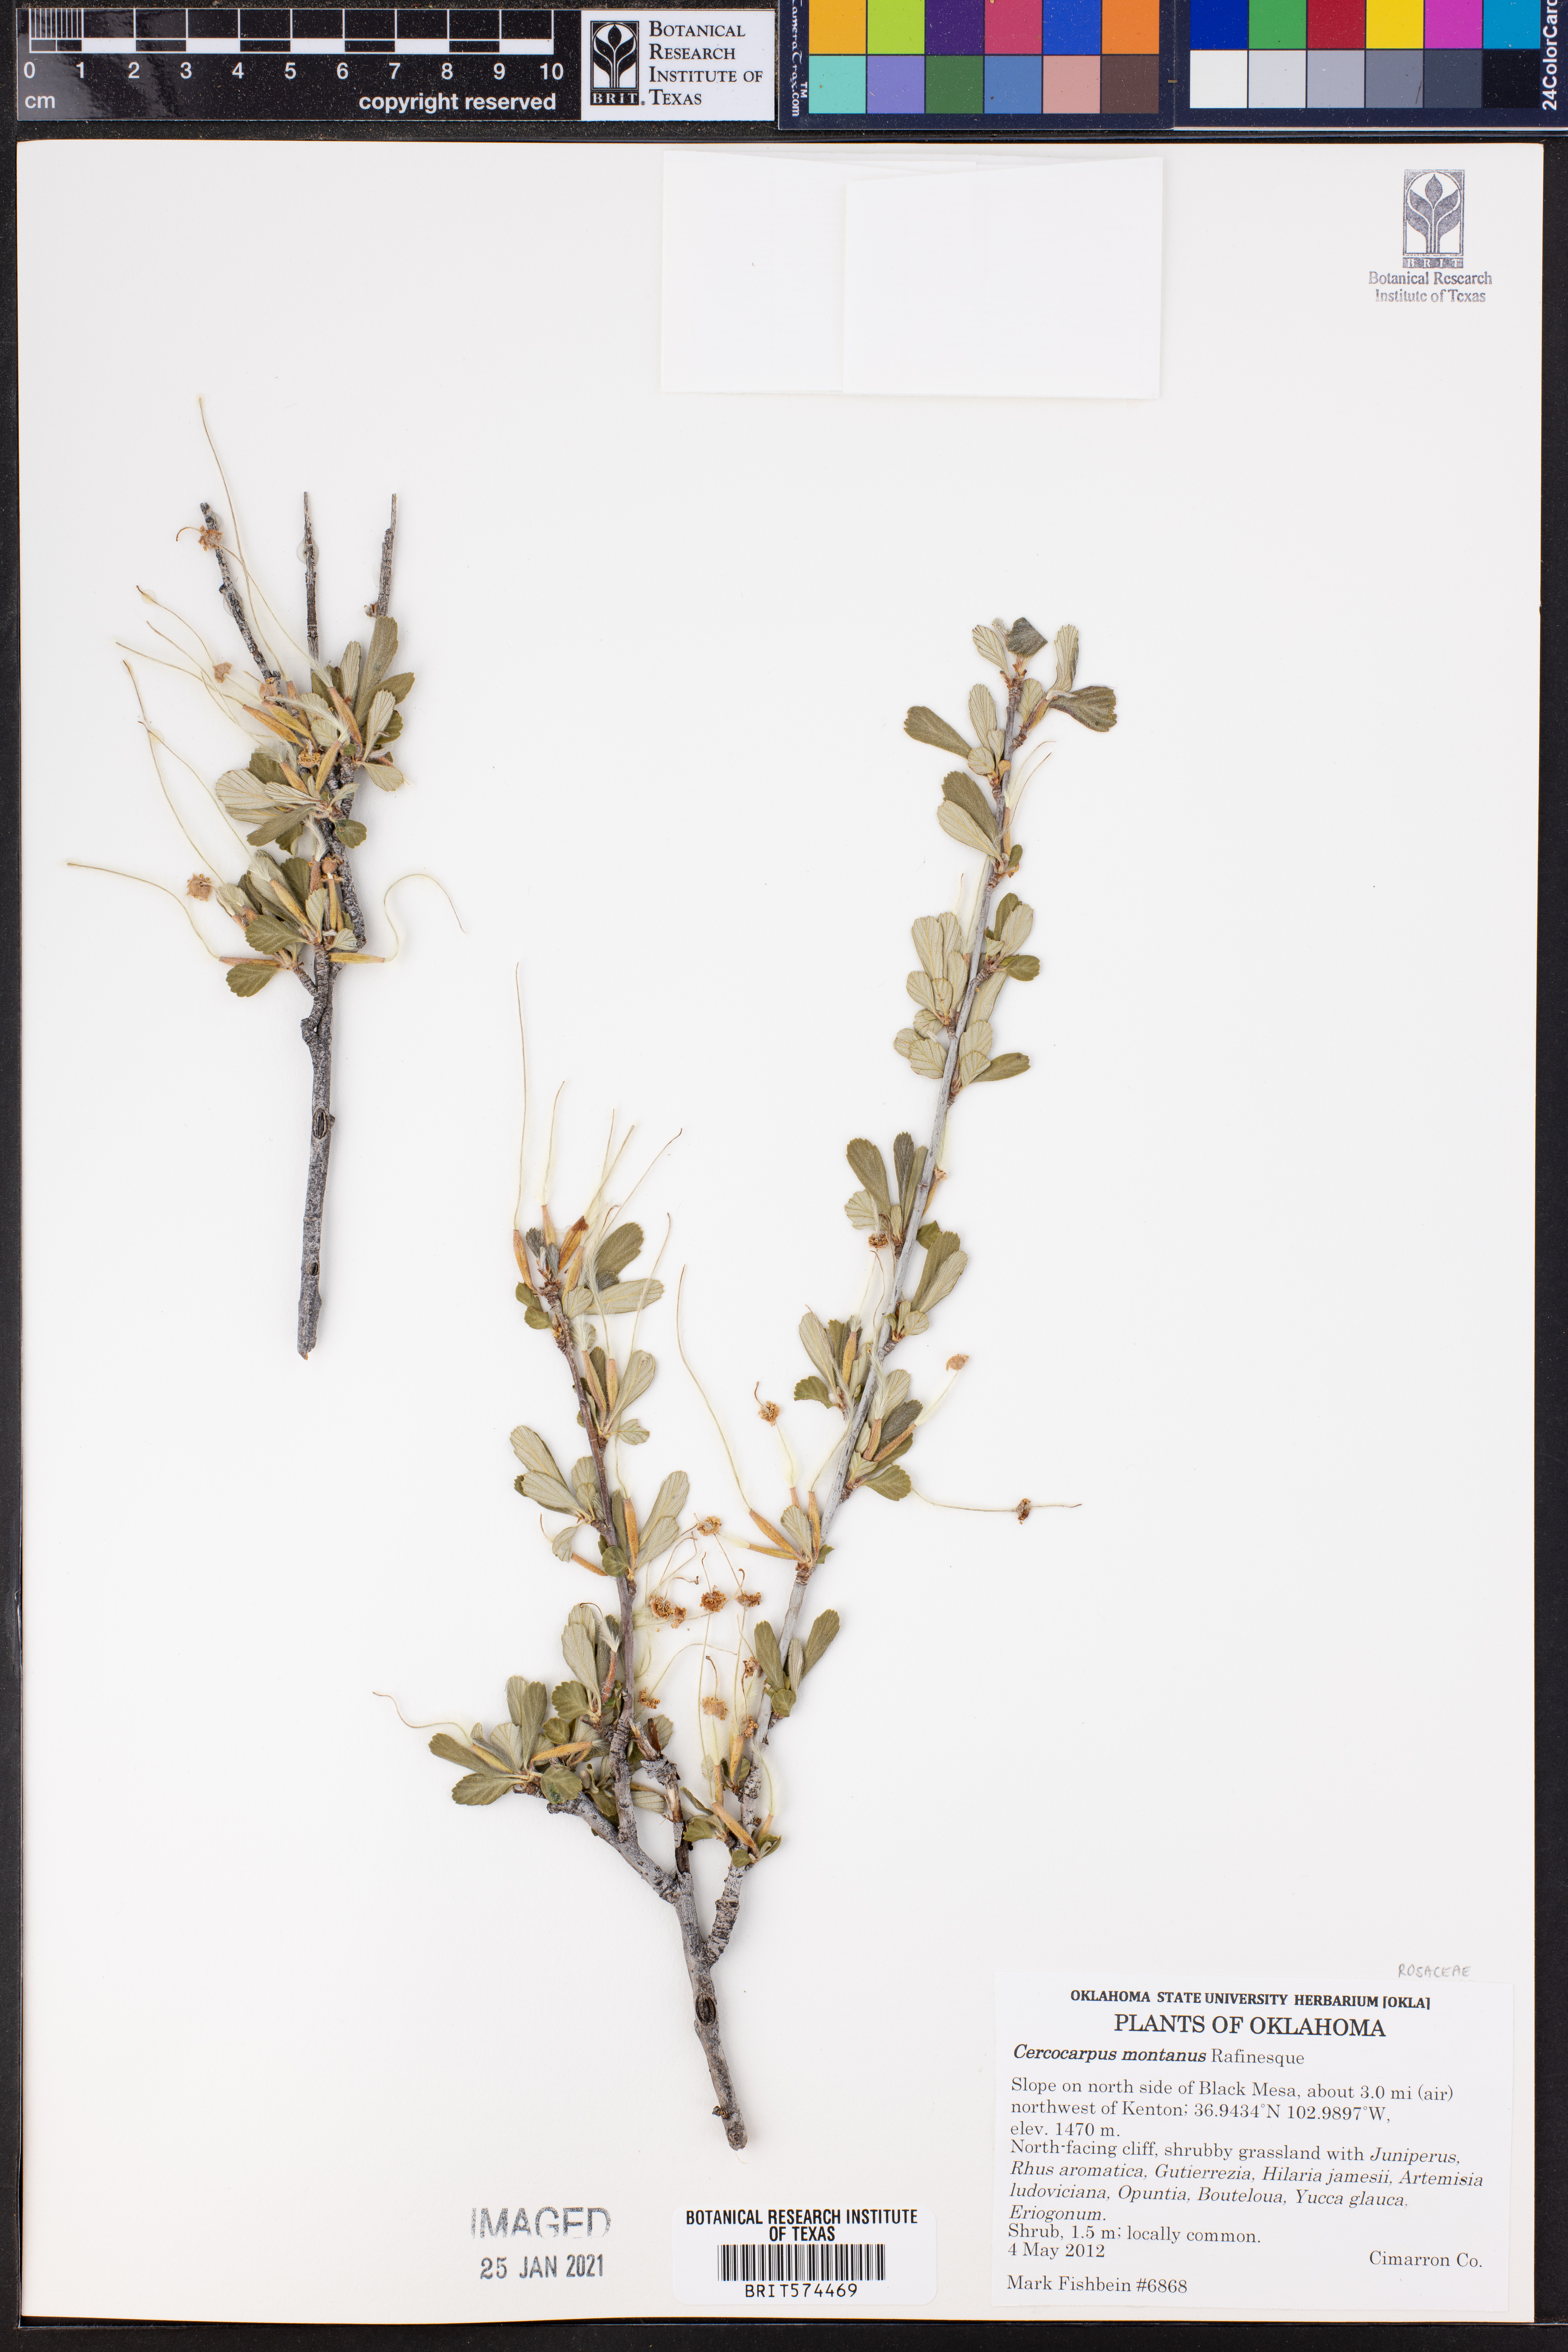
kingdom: Plantae
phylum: Tracheophyta
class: Magnoliopsida
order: Rosales
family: Rosaceae
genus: Cercocarpus
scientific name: Cercocarpus montanus
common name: Alder-leaf cercocarpus
